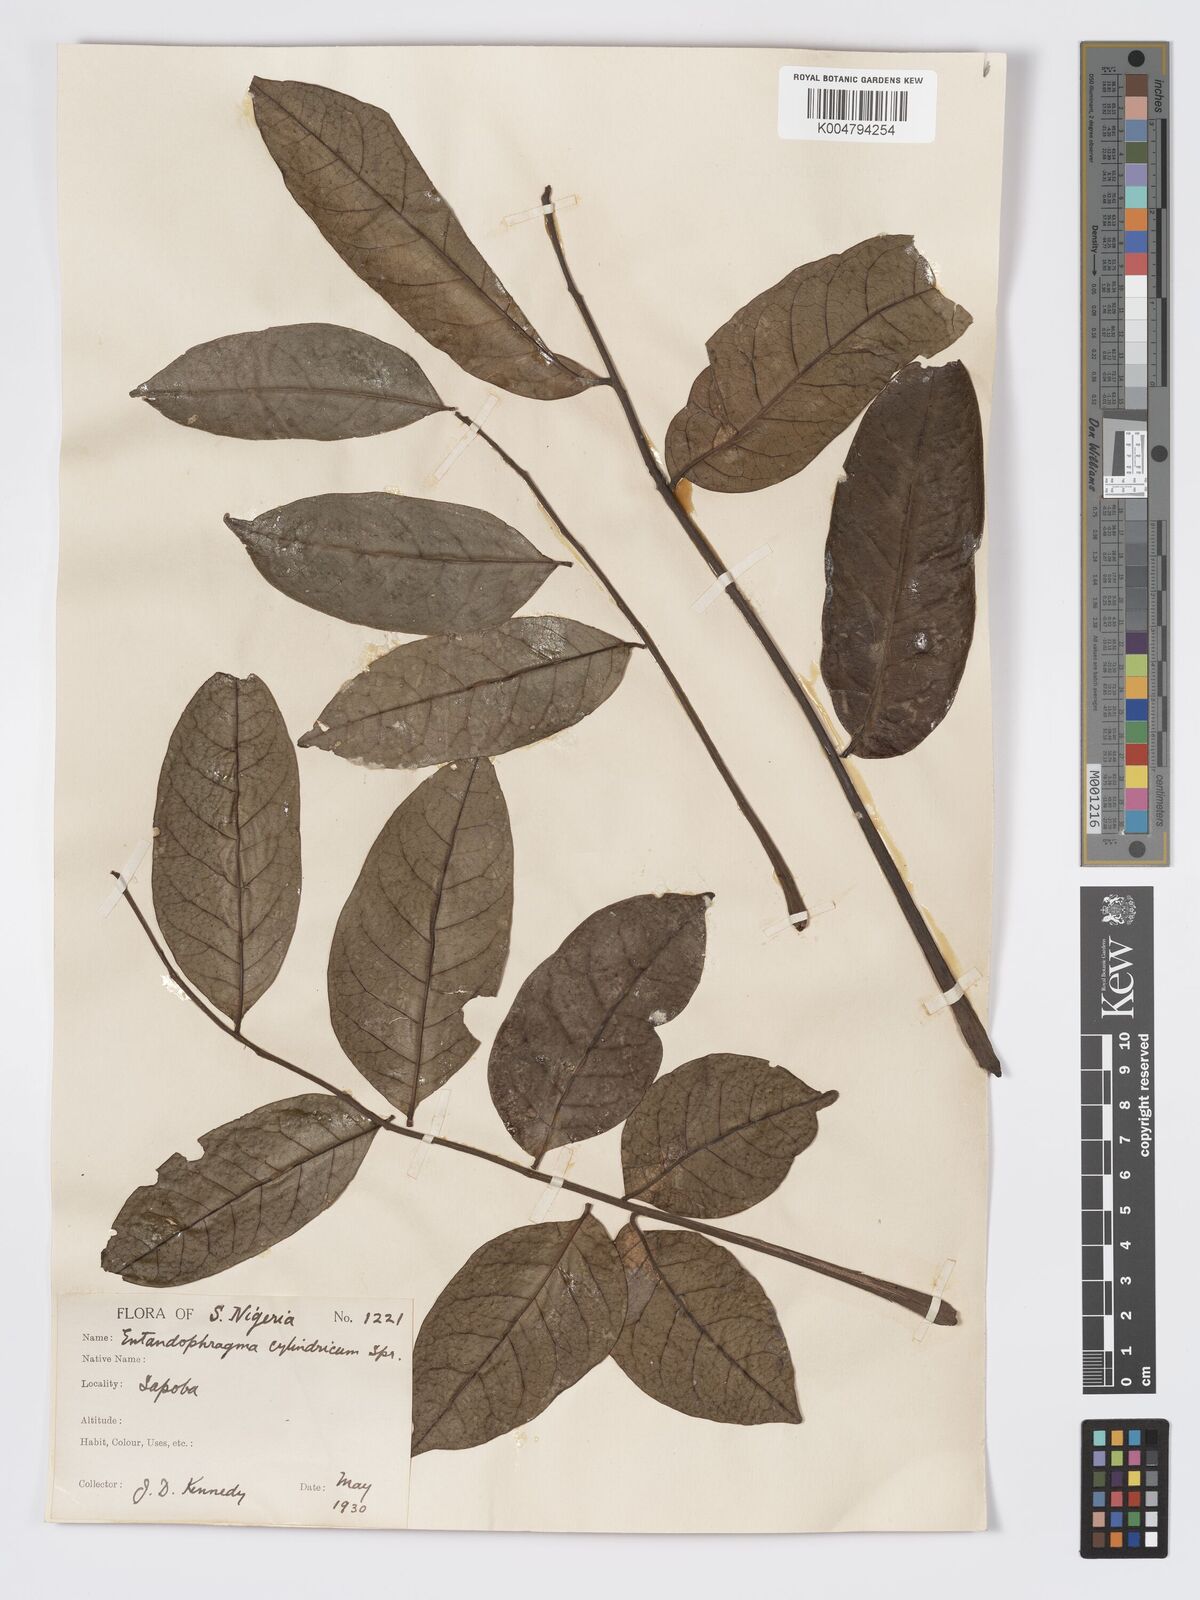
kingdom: Plantae
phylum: Tracheophyta
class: Magnoliopsida
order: Sapindales
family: Meliaceae
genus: Entandrophragma
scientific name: Entandrophragma cylindricum
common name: Sapele
